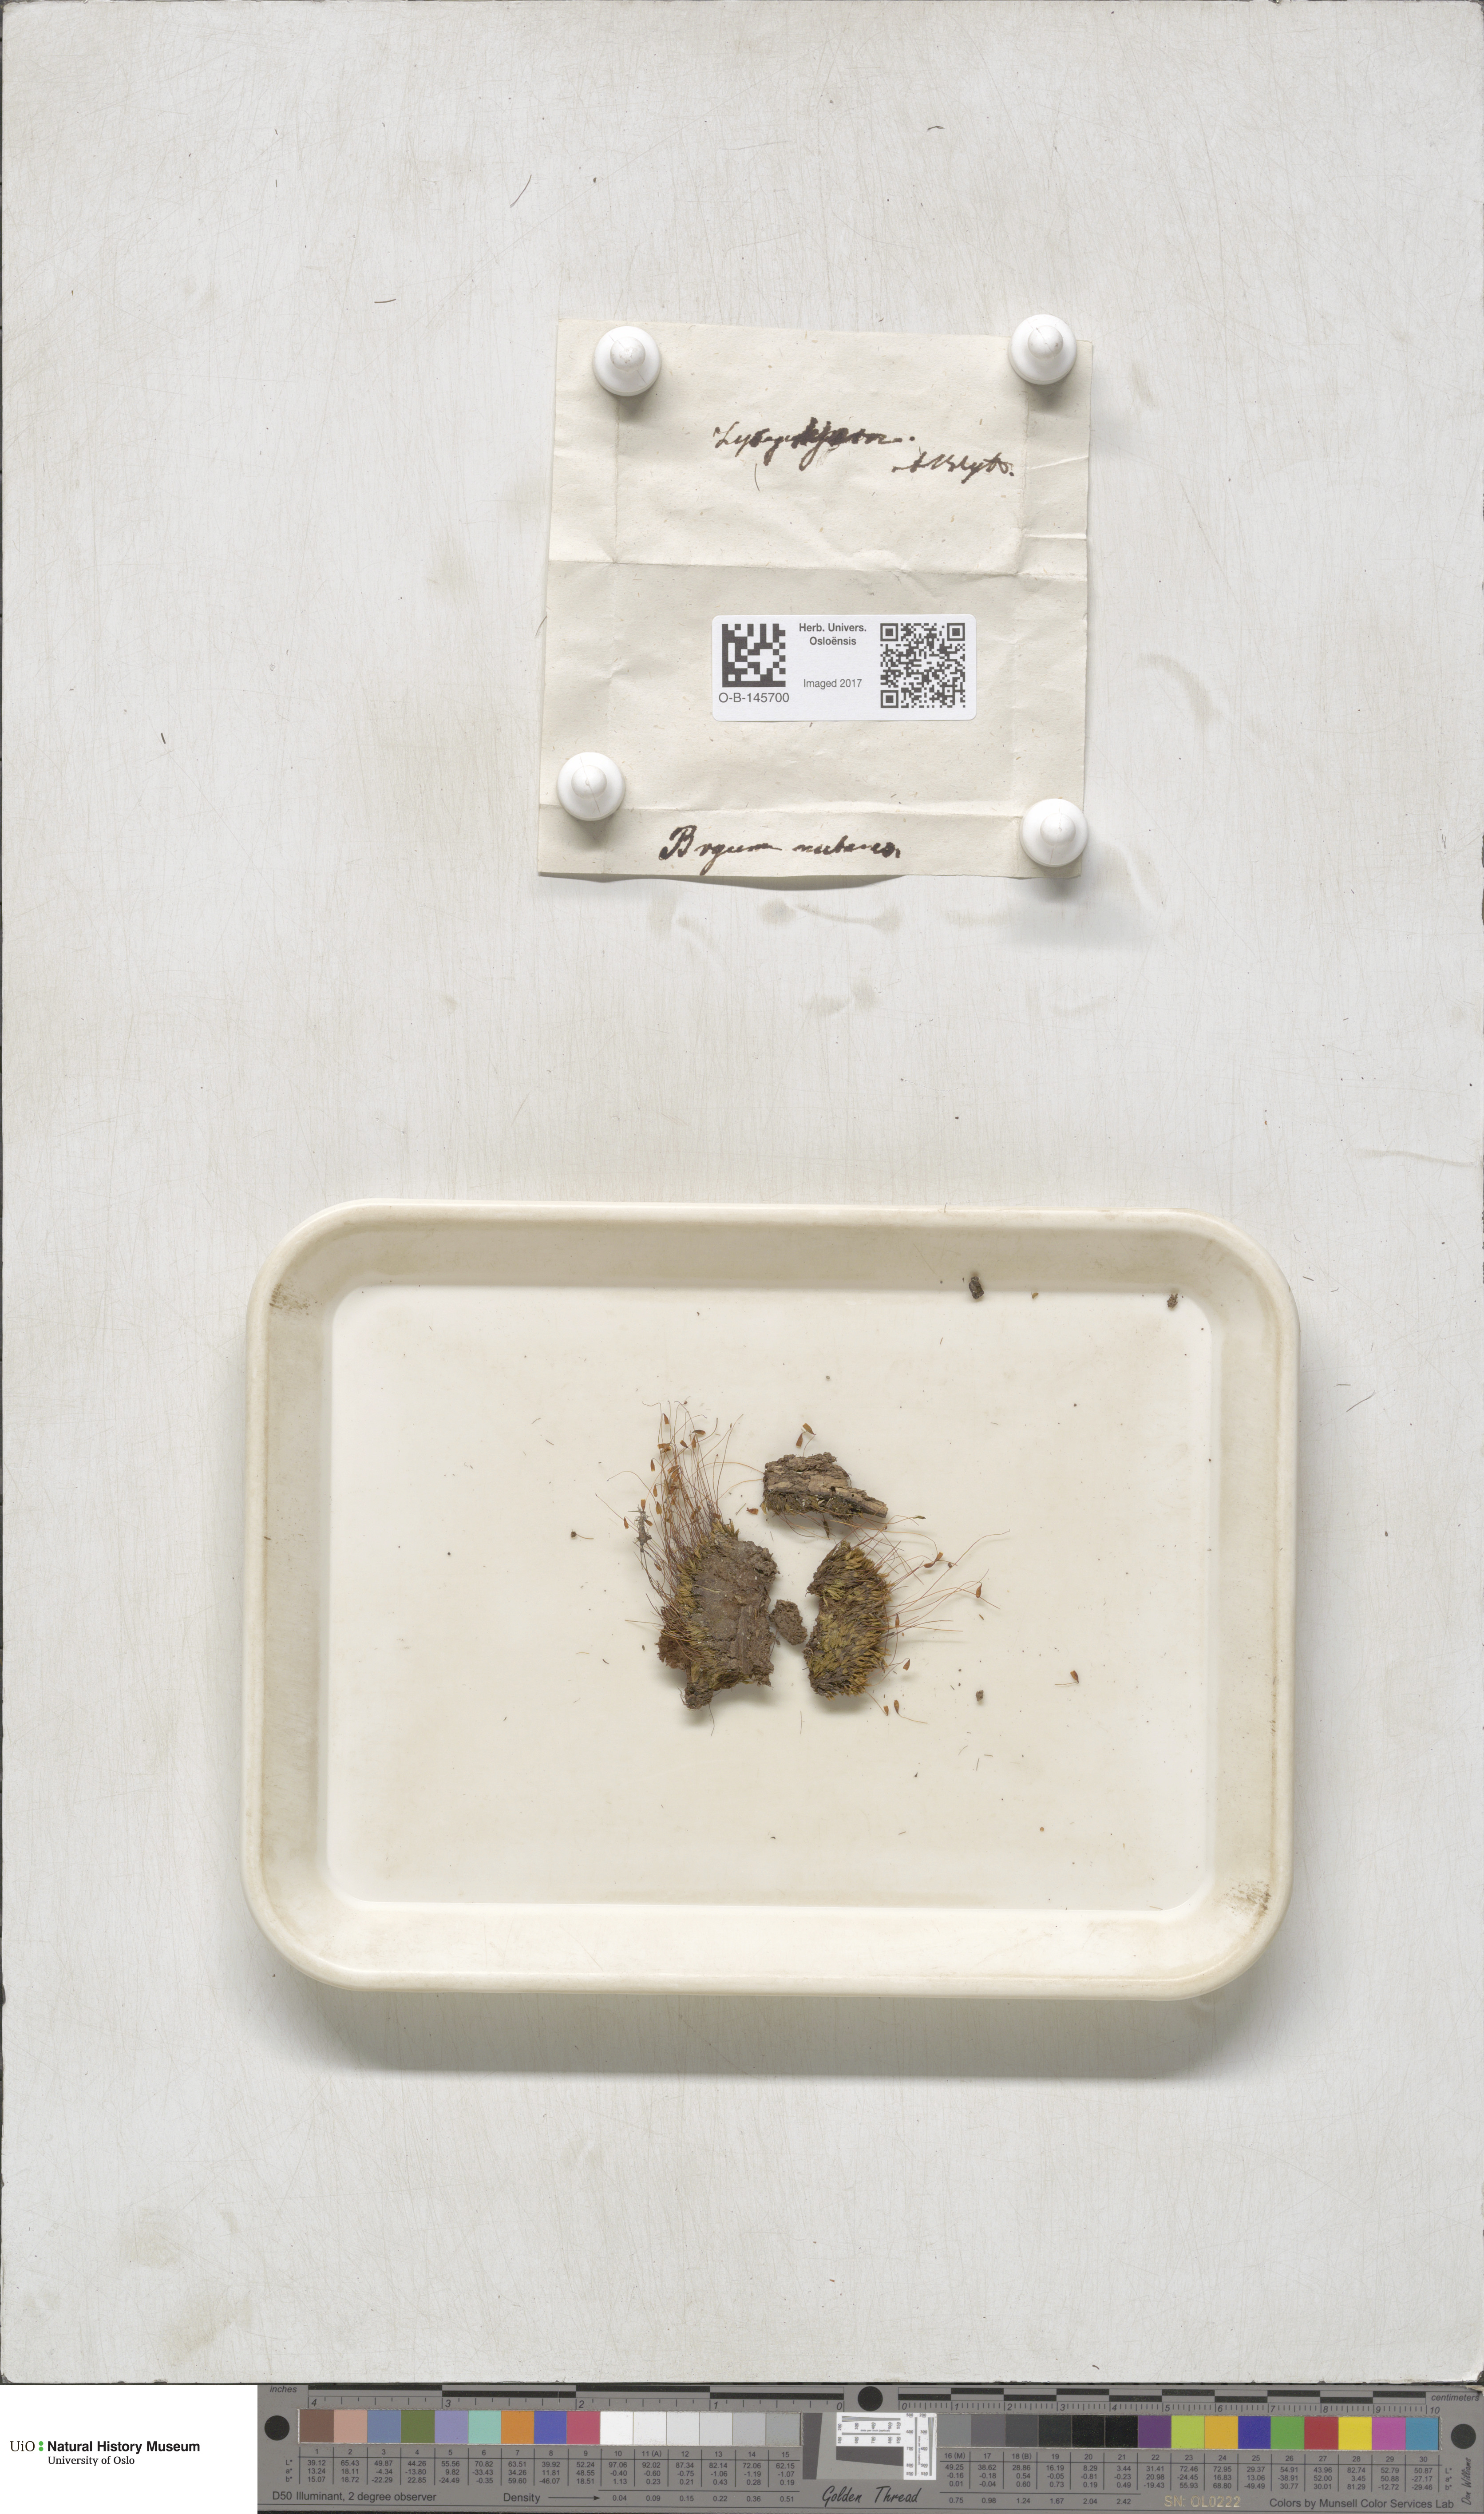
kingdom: Plantae
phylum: Bryophyta
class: Bryopsida
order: Bryales
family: Mniaceae
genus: Pohlia
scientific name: Pohlia nutans
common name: Nodding thread-moss
